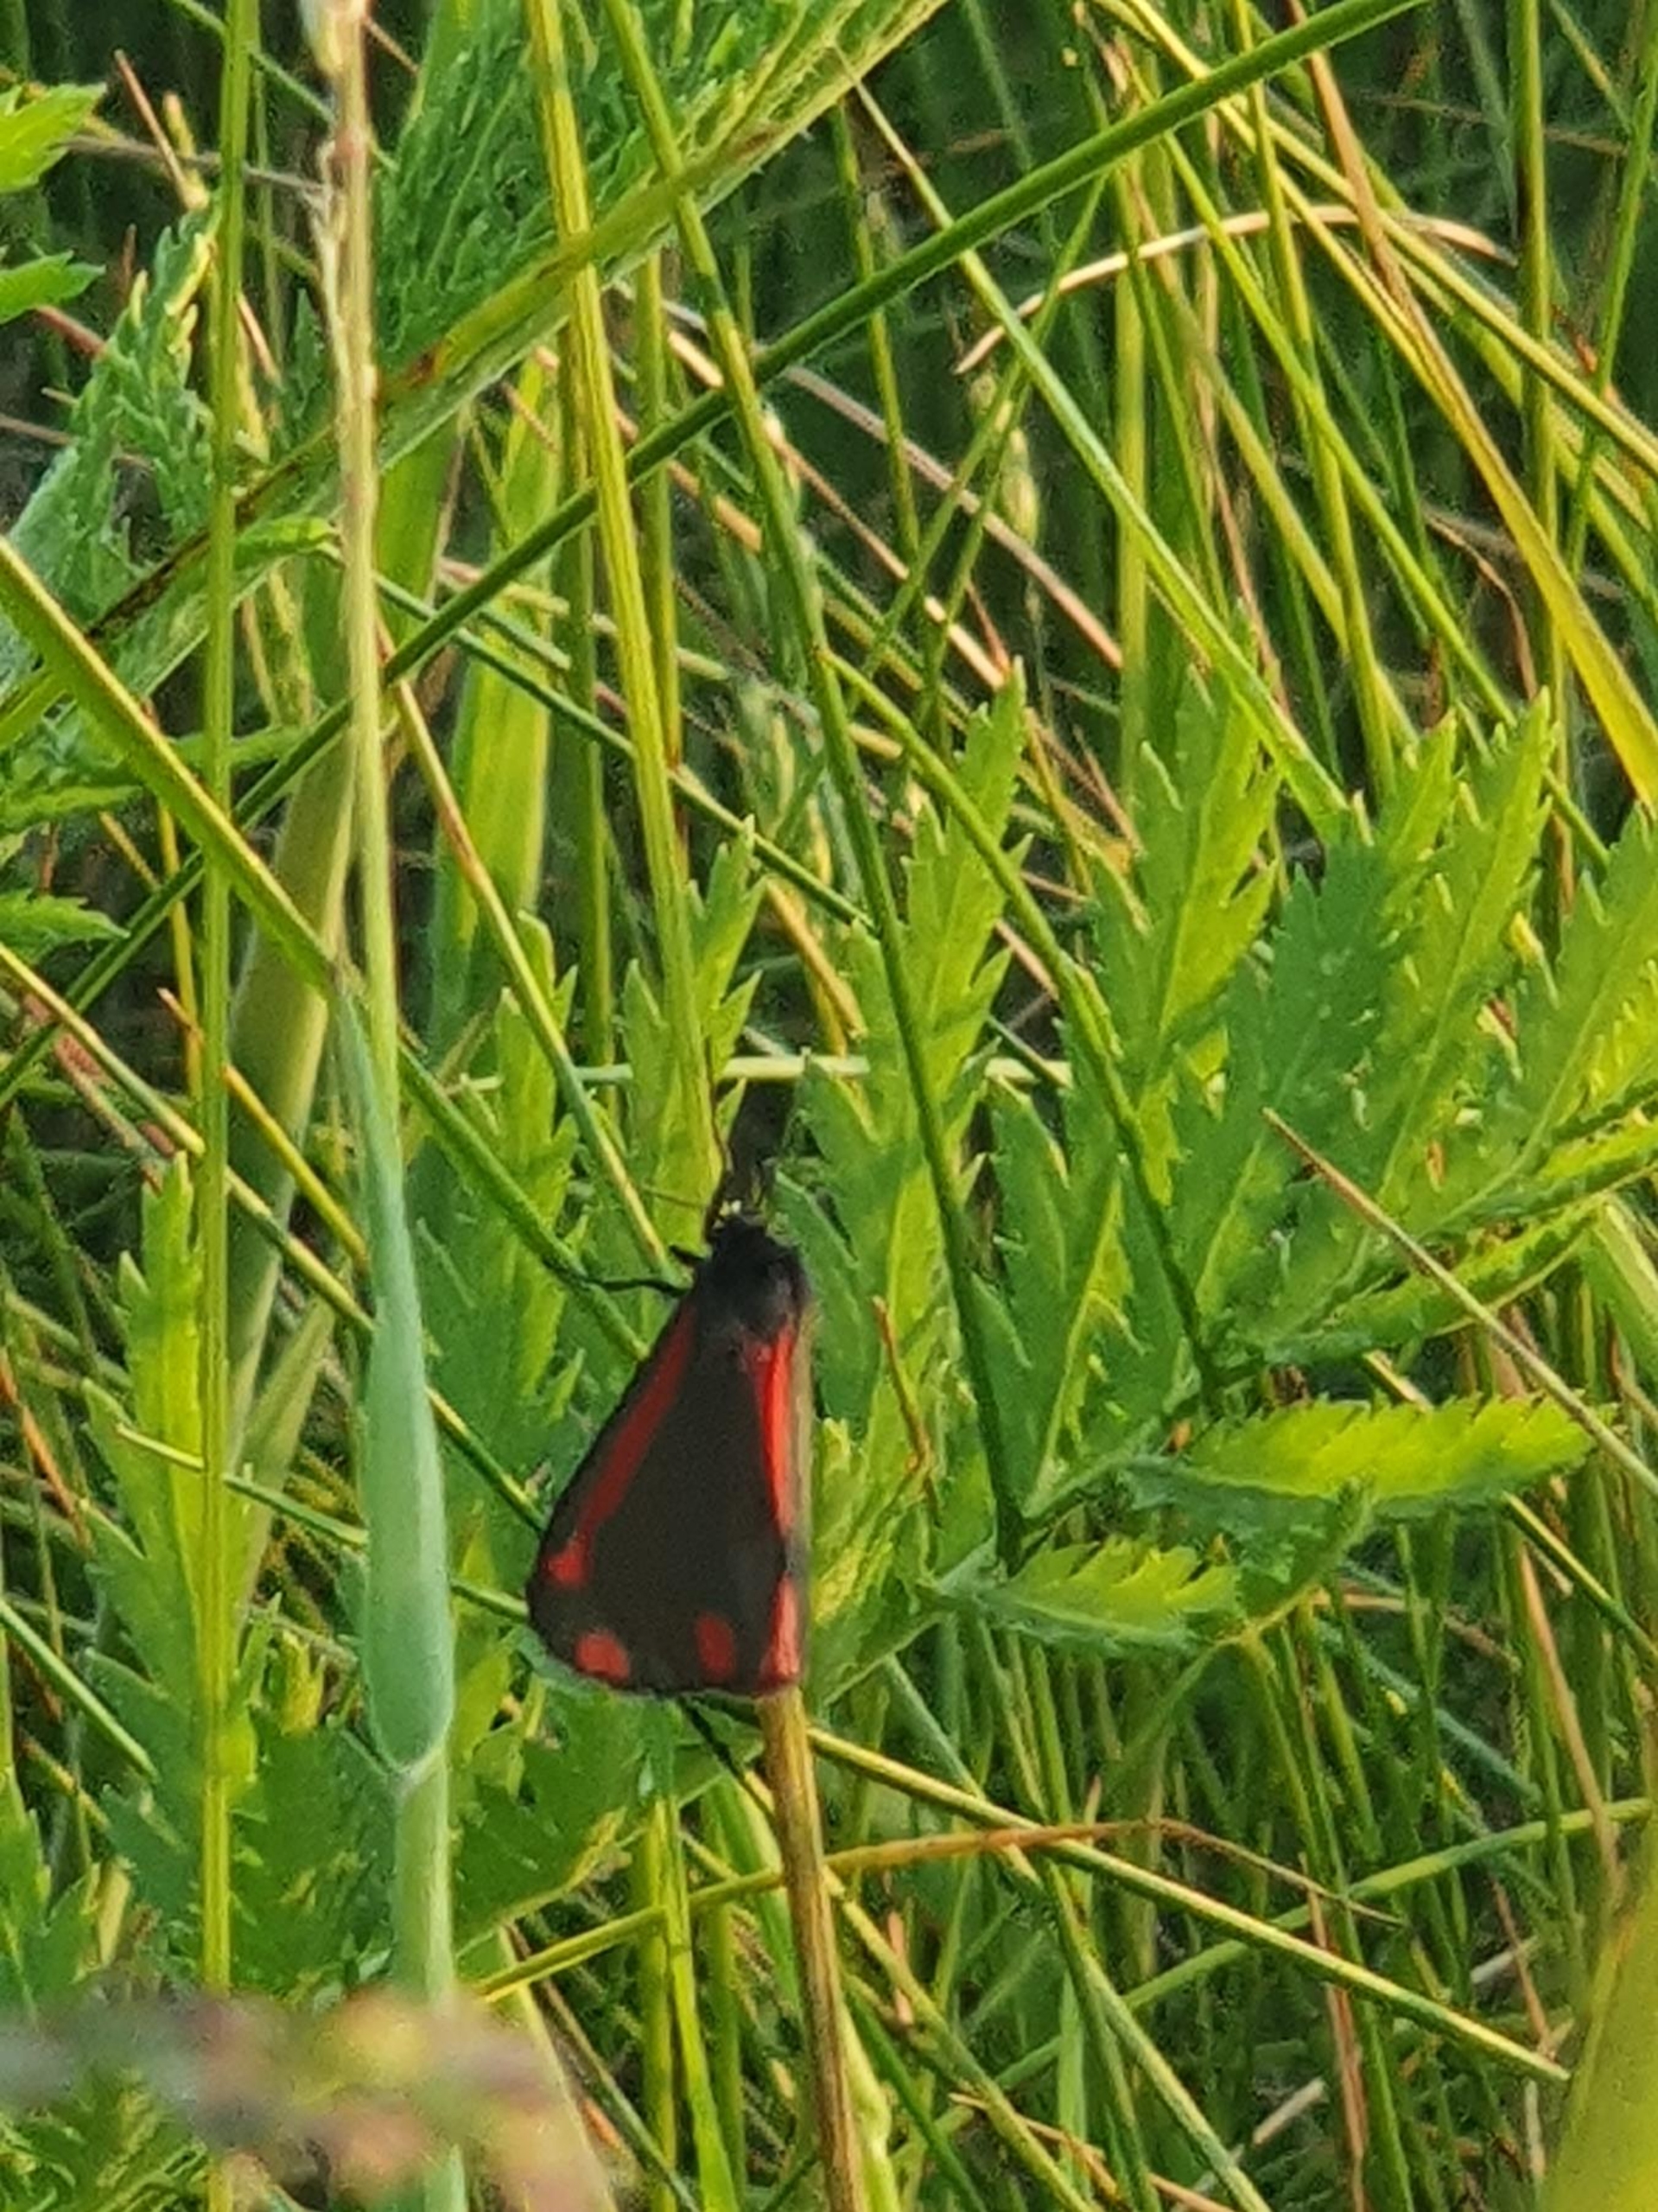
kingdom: Animalia
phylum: Arthropoda
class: Insecta
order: Lepidoptera
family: Erebidae
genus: Tyria
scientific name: Tyria jacobaeae
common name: Blodplet
